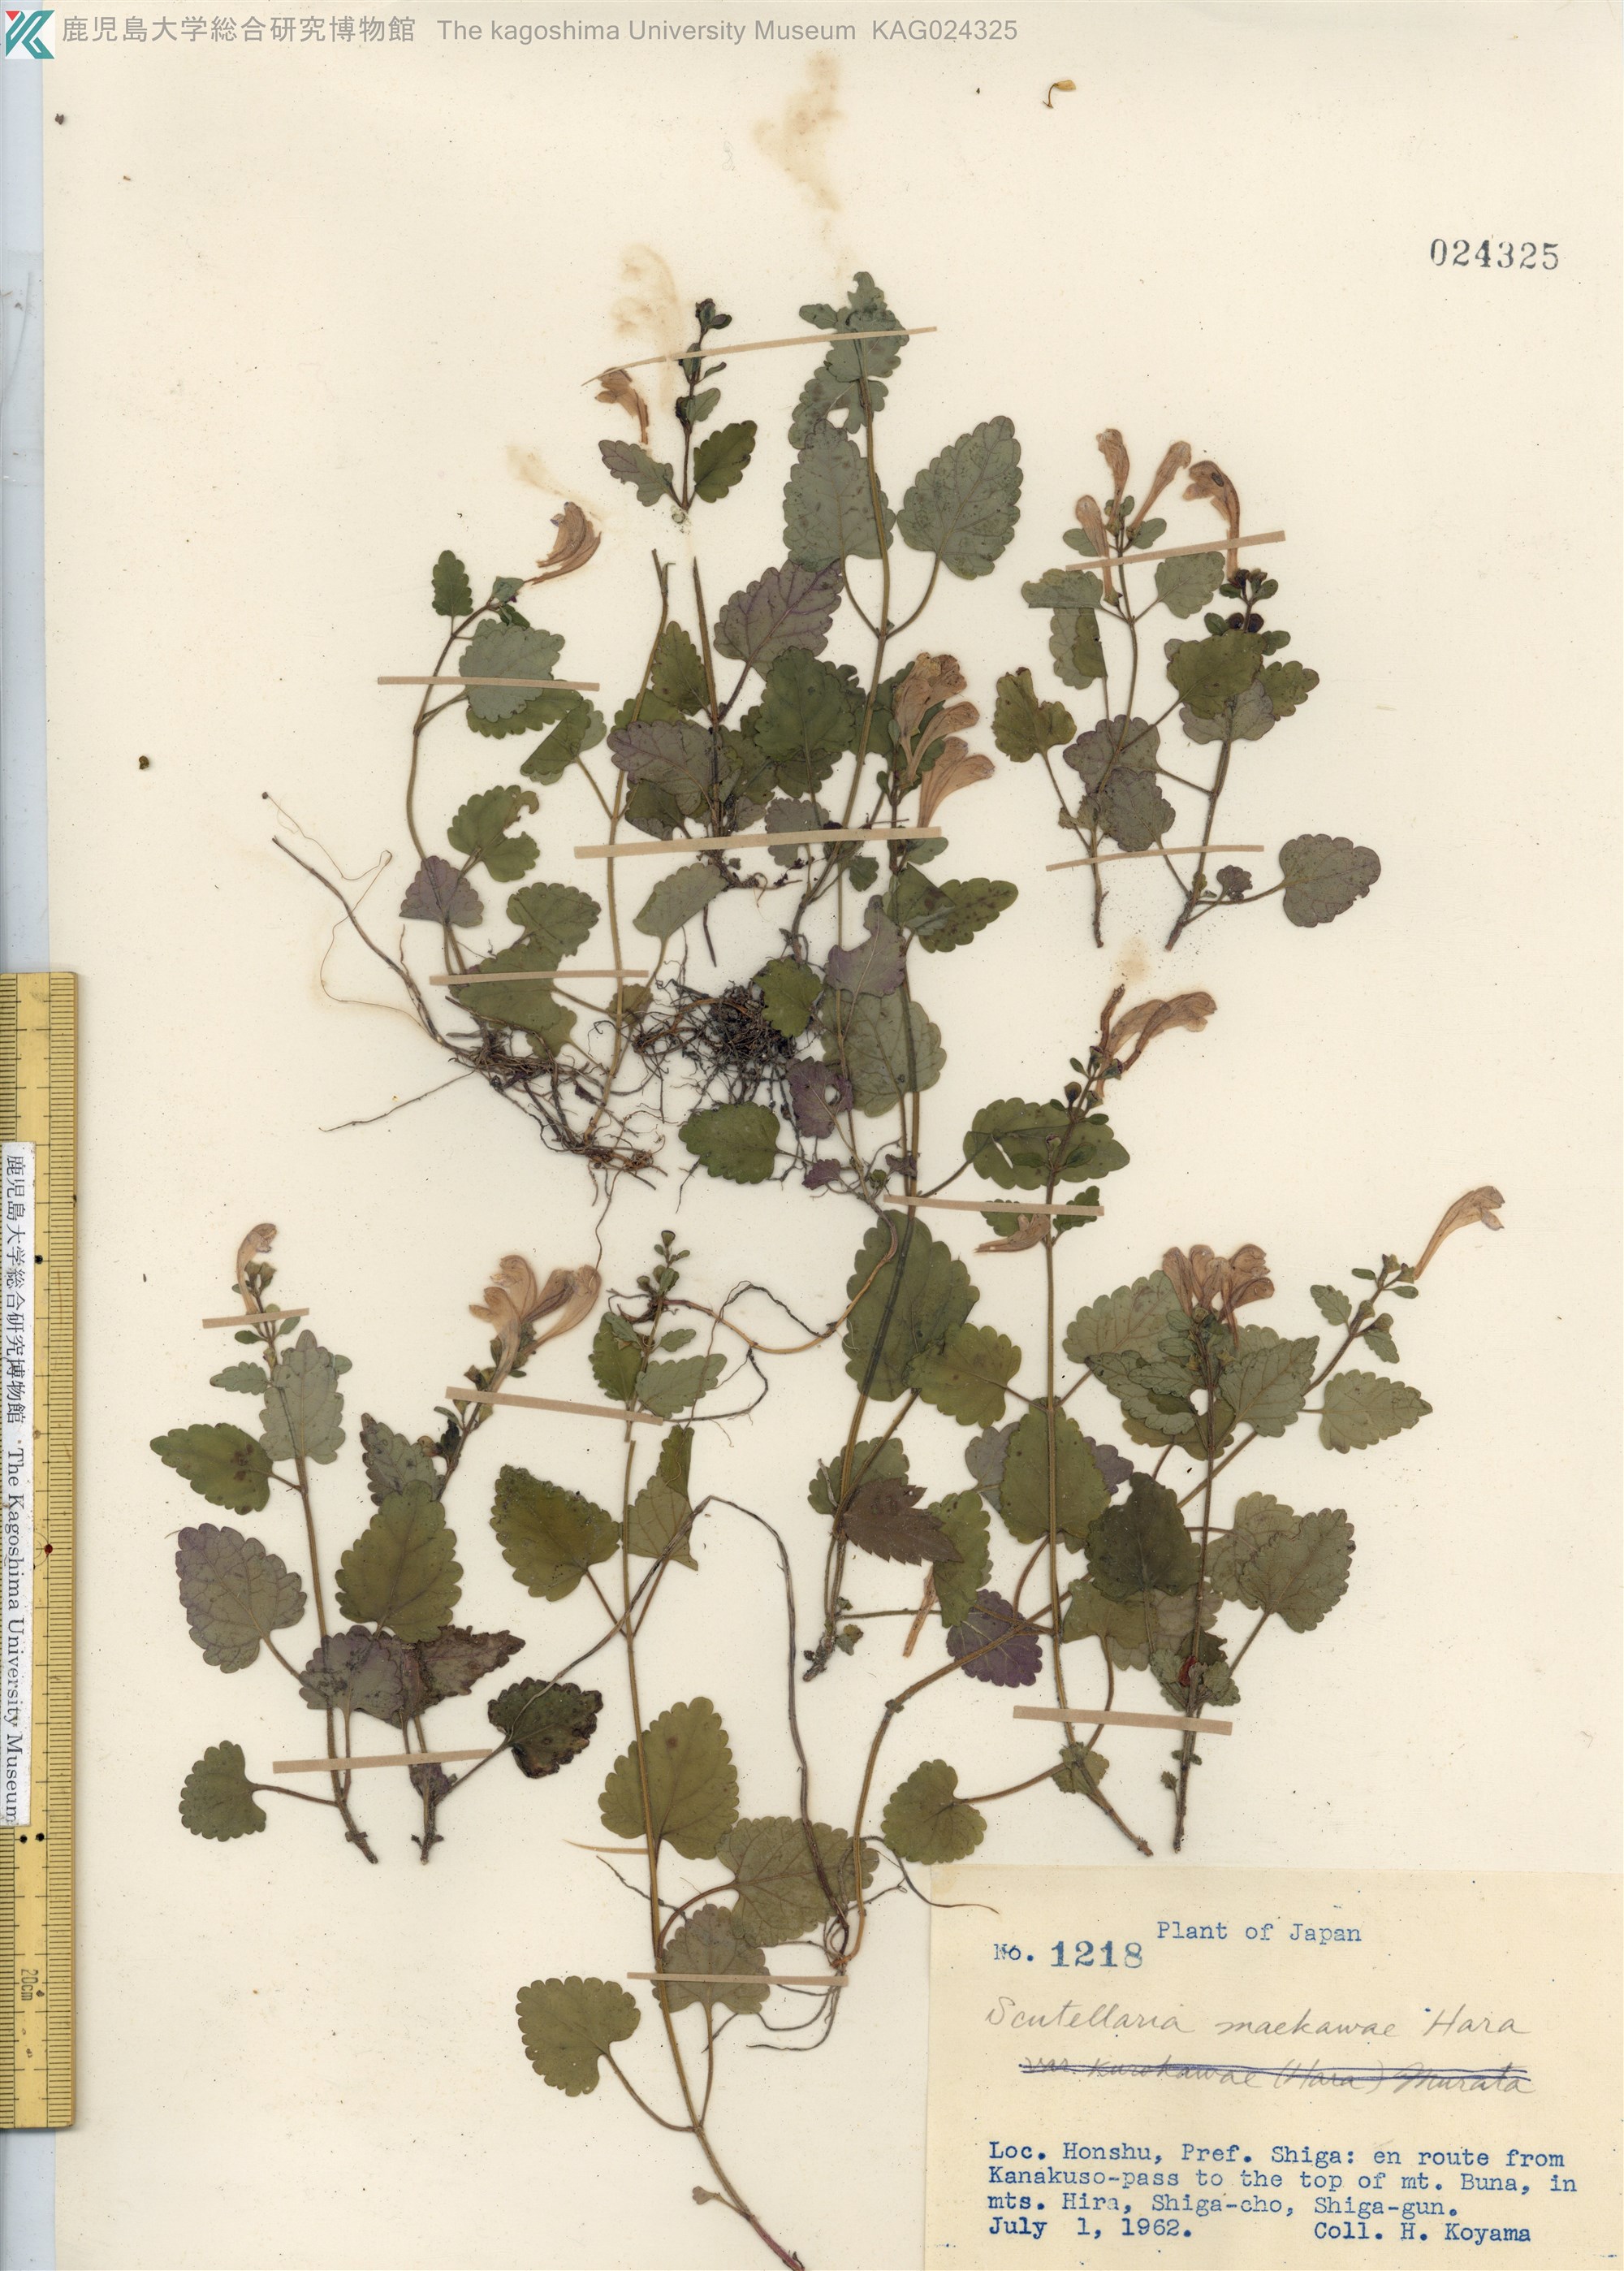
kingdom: Plantae
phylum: Tracheophyta
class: Magnoliopsida
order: Lamiales
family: Lamiaceae
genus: Scutellaria
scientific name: Scutellaria laeteviolacea
